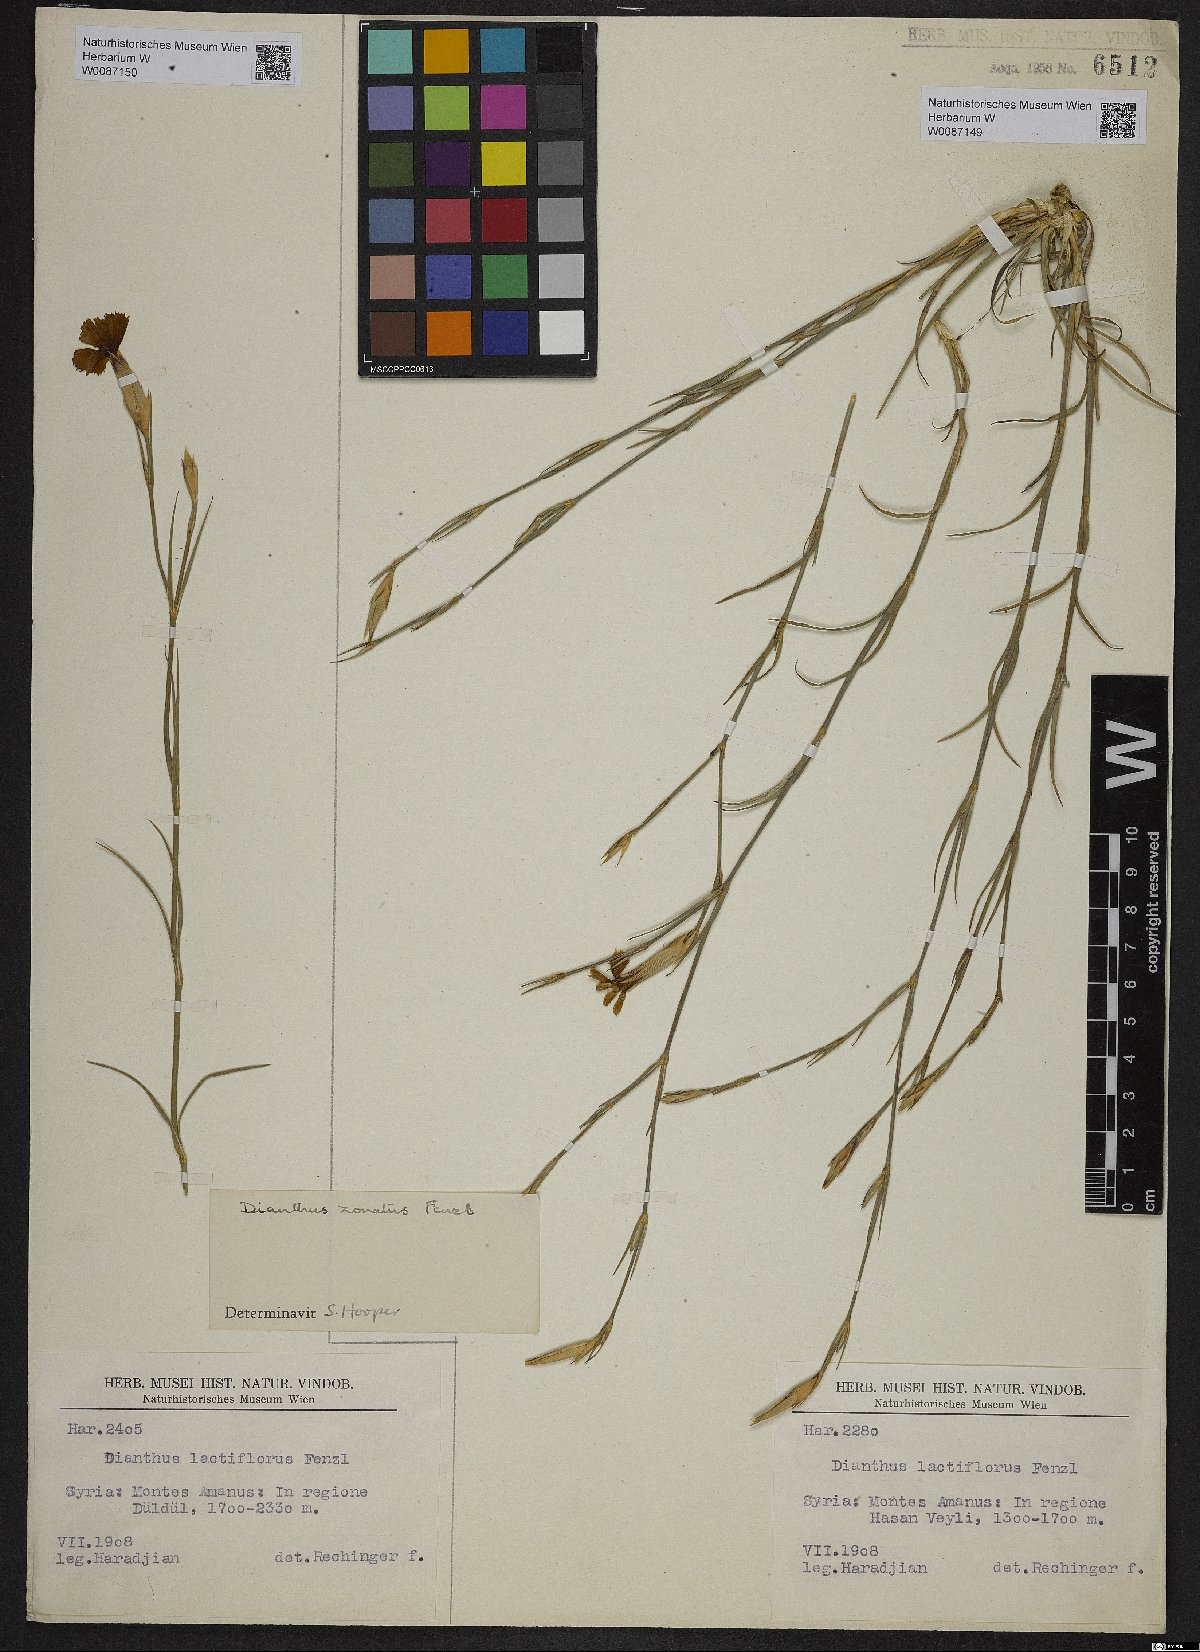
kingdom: Plantae
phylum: Tracheophyta
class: Magnoliopsida
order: Caryophyllales
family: Caryophyllaceae
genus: Dianthus
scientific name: Dianthus zonatus
